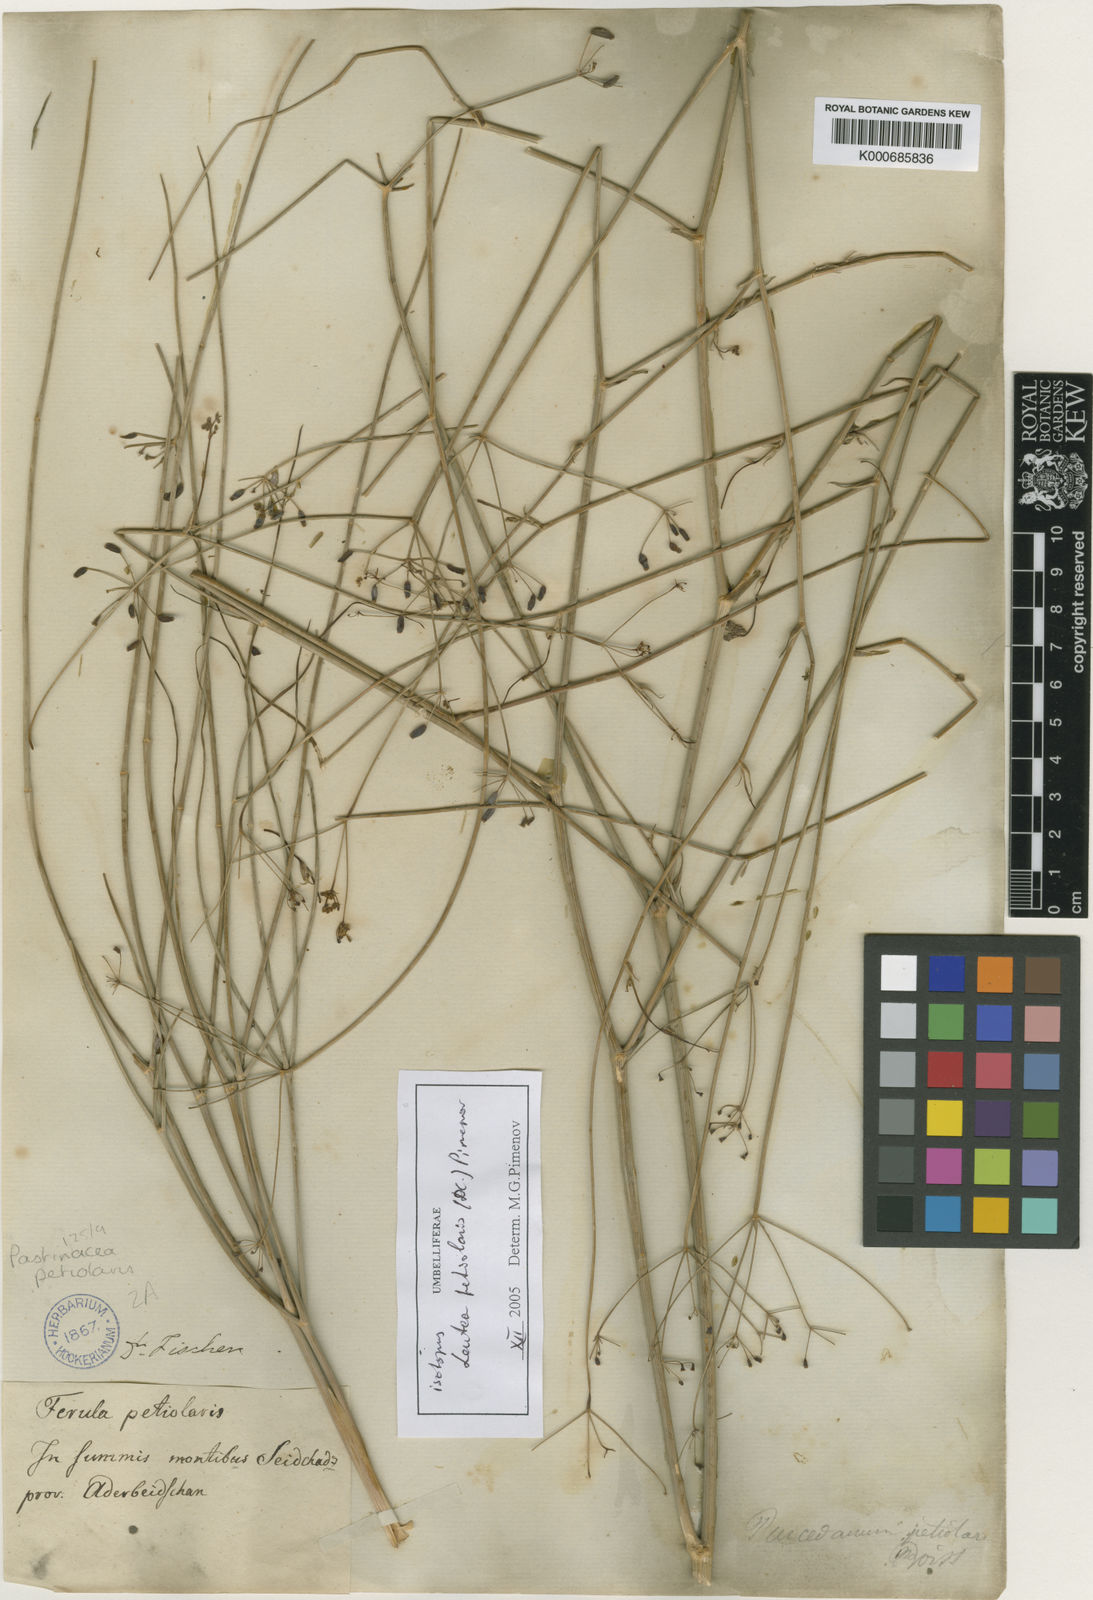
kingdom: Plantae
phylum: Tracheophyta
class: Magnoliopsida
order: Apiales
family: Apiaceae
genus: Leutea
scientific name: Leutea petiolaris
